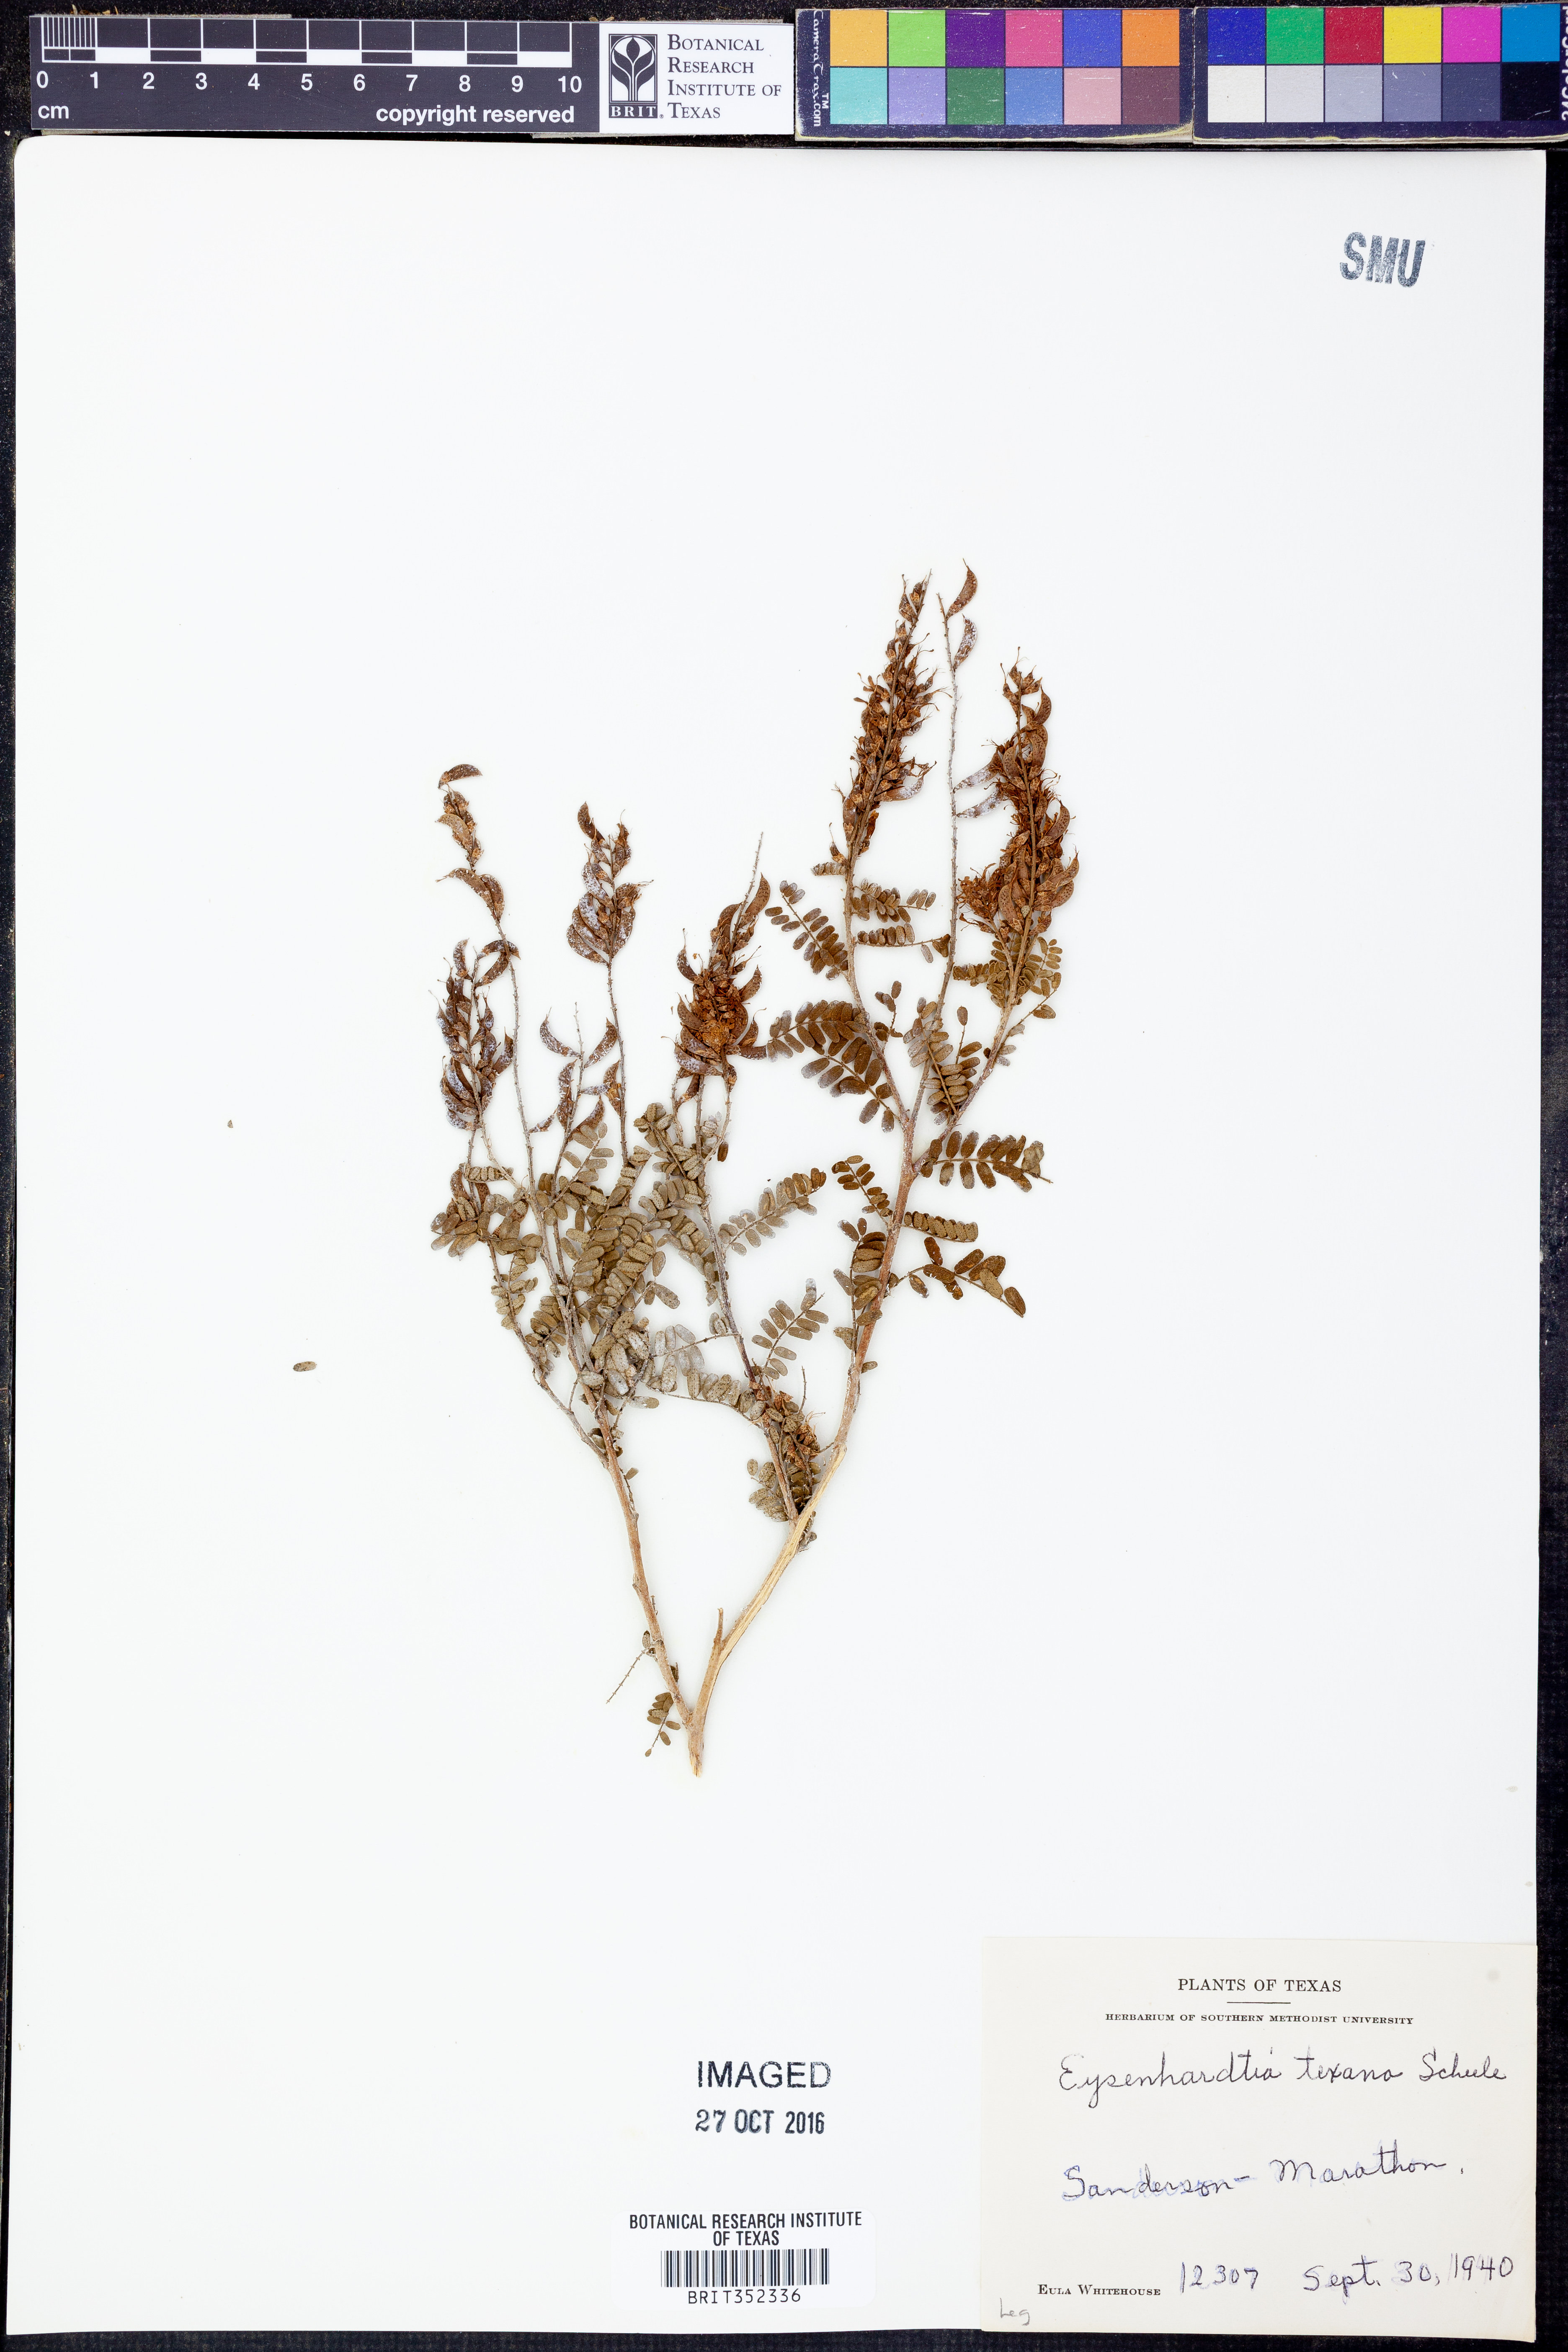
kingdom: Plantae
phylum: Tracheophyta
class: Magnoliopsida
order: Fabales
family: Fabaceae
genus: Eysenhardtia
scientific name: Eysenhardtia texana
